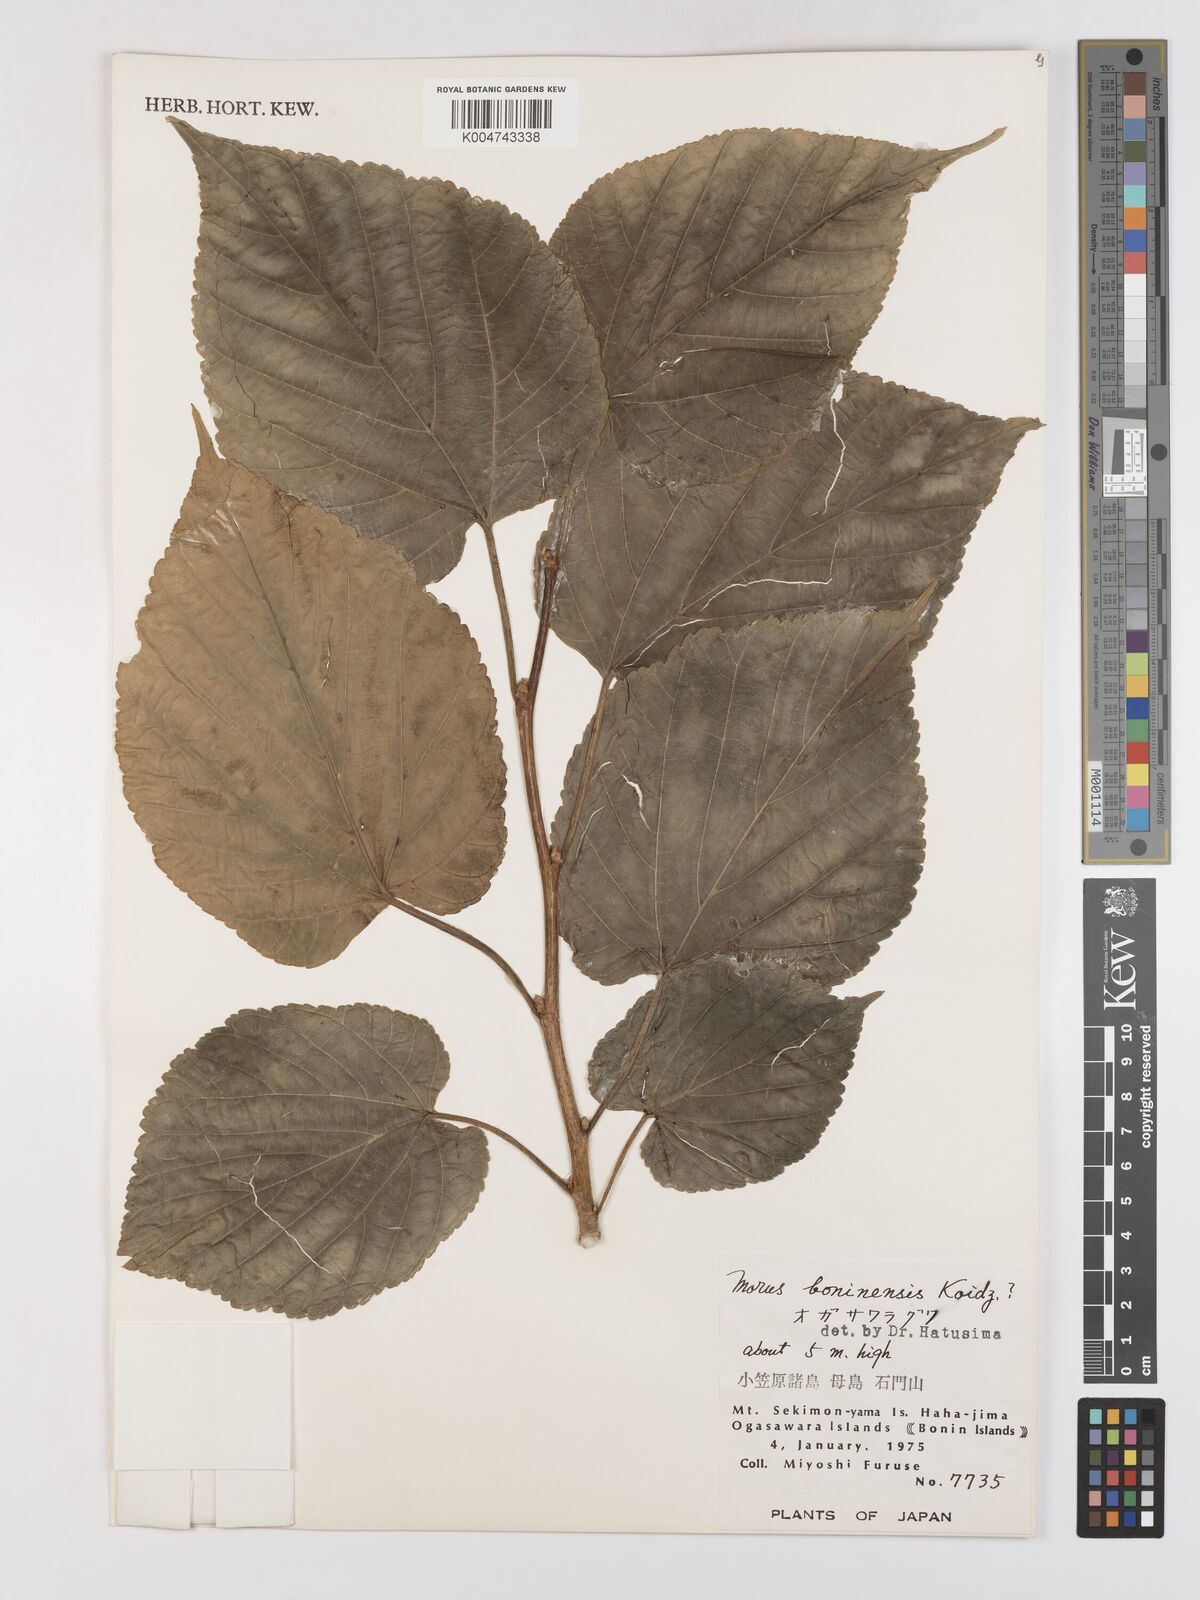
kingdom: Plantae
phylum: Tracheophyta
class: Magnoliopsida
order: Rosales
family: Moraceae
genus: Morus
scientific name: Morus boninensis
